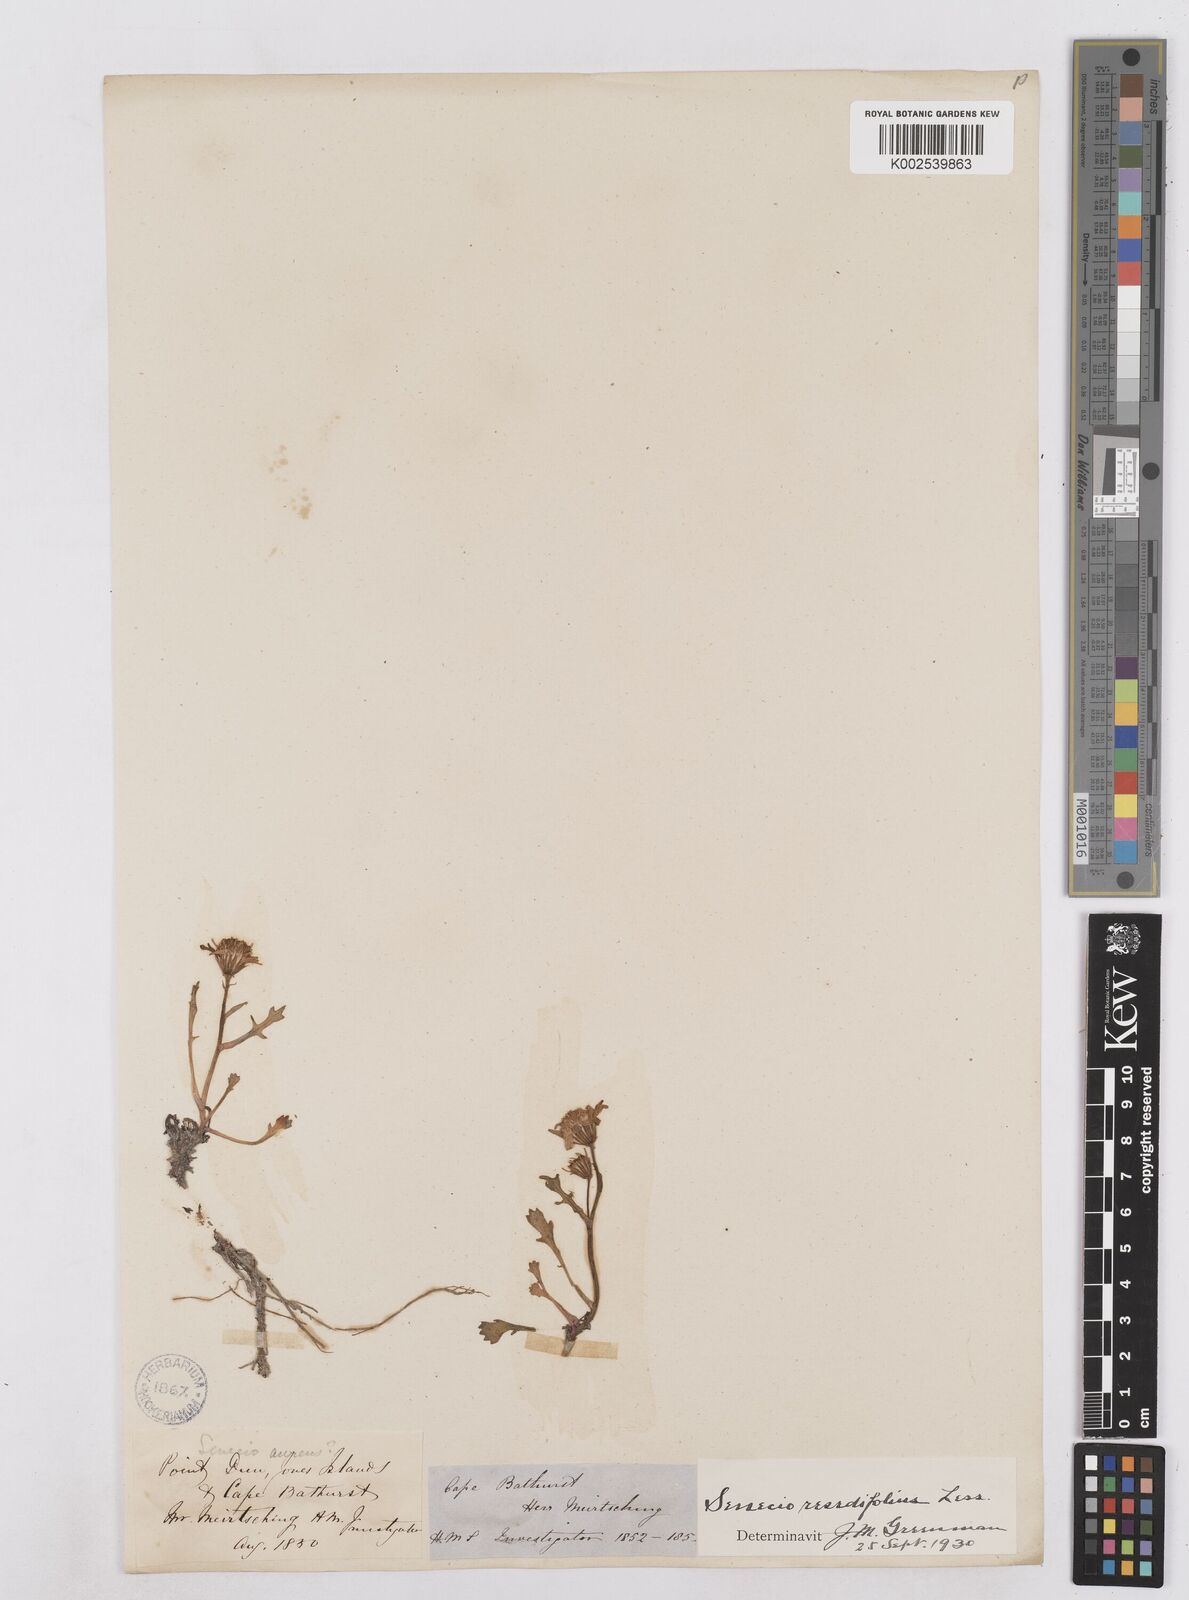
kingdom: Plantae
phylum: Tracheophyta
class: Magnoliopsida
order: Asterales
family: Asteraceae
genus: Packera
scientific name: Packera cymbalaria
